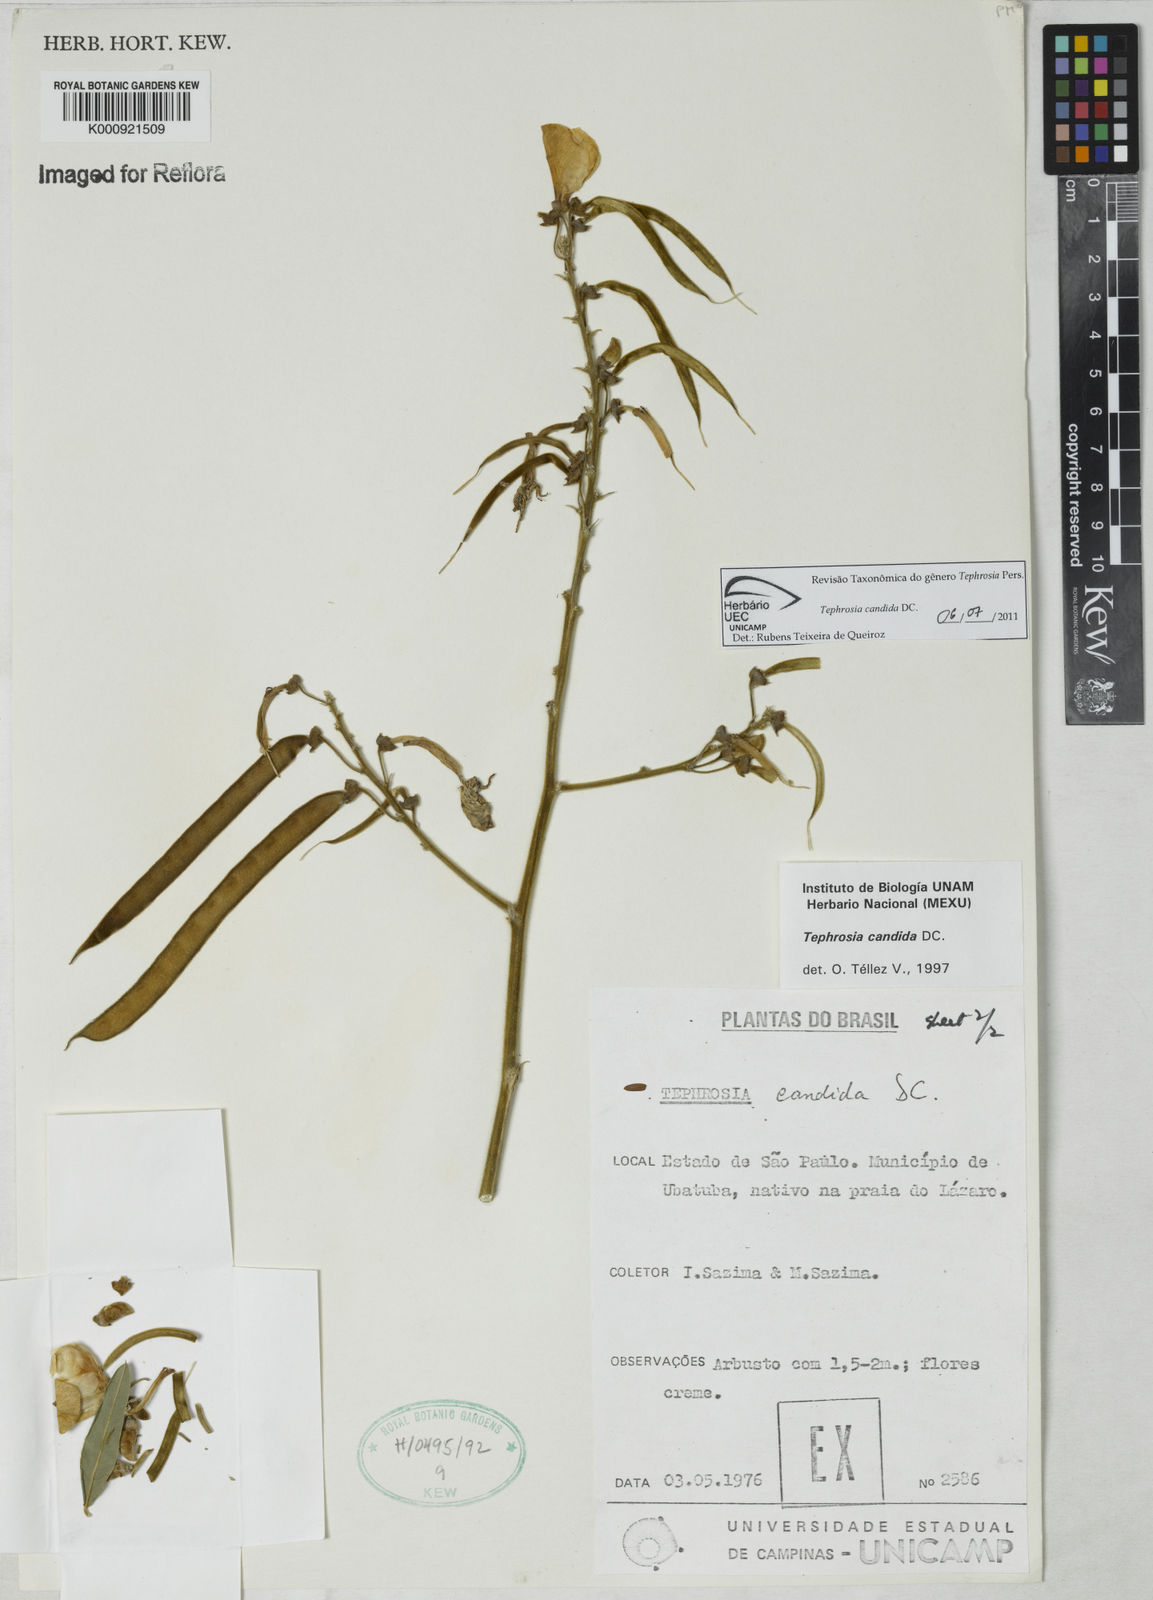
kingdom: Plantae
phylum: Tracheophyta
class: Magnoliopsida
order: Fabales
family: Fabaceae
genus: Tephrosia
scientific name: Tephrosia candida
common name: White tephrosia
